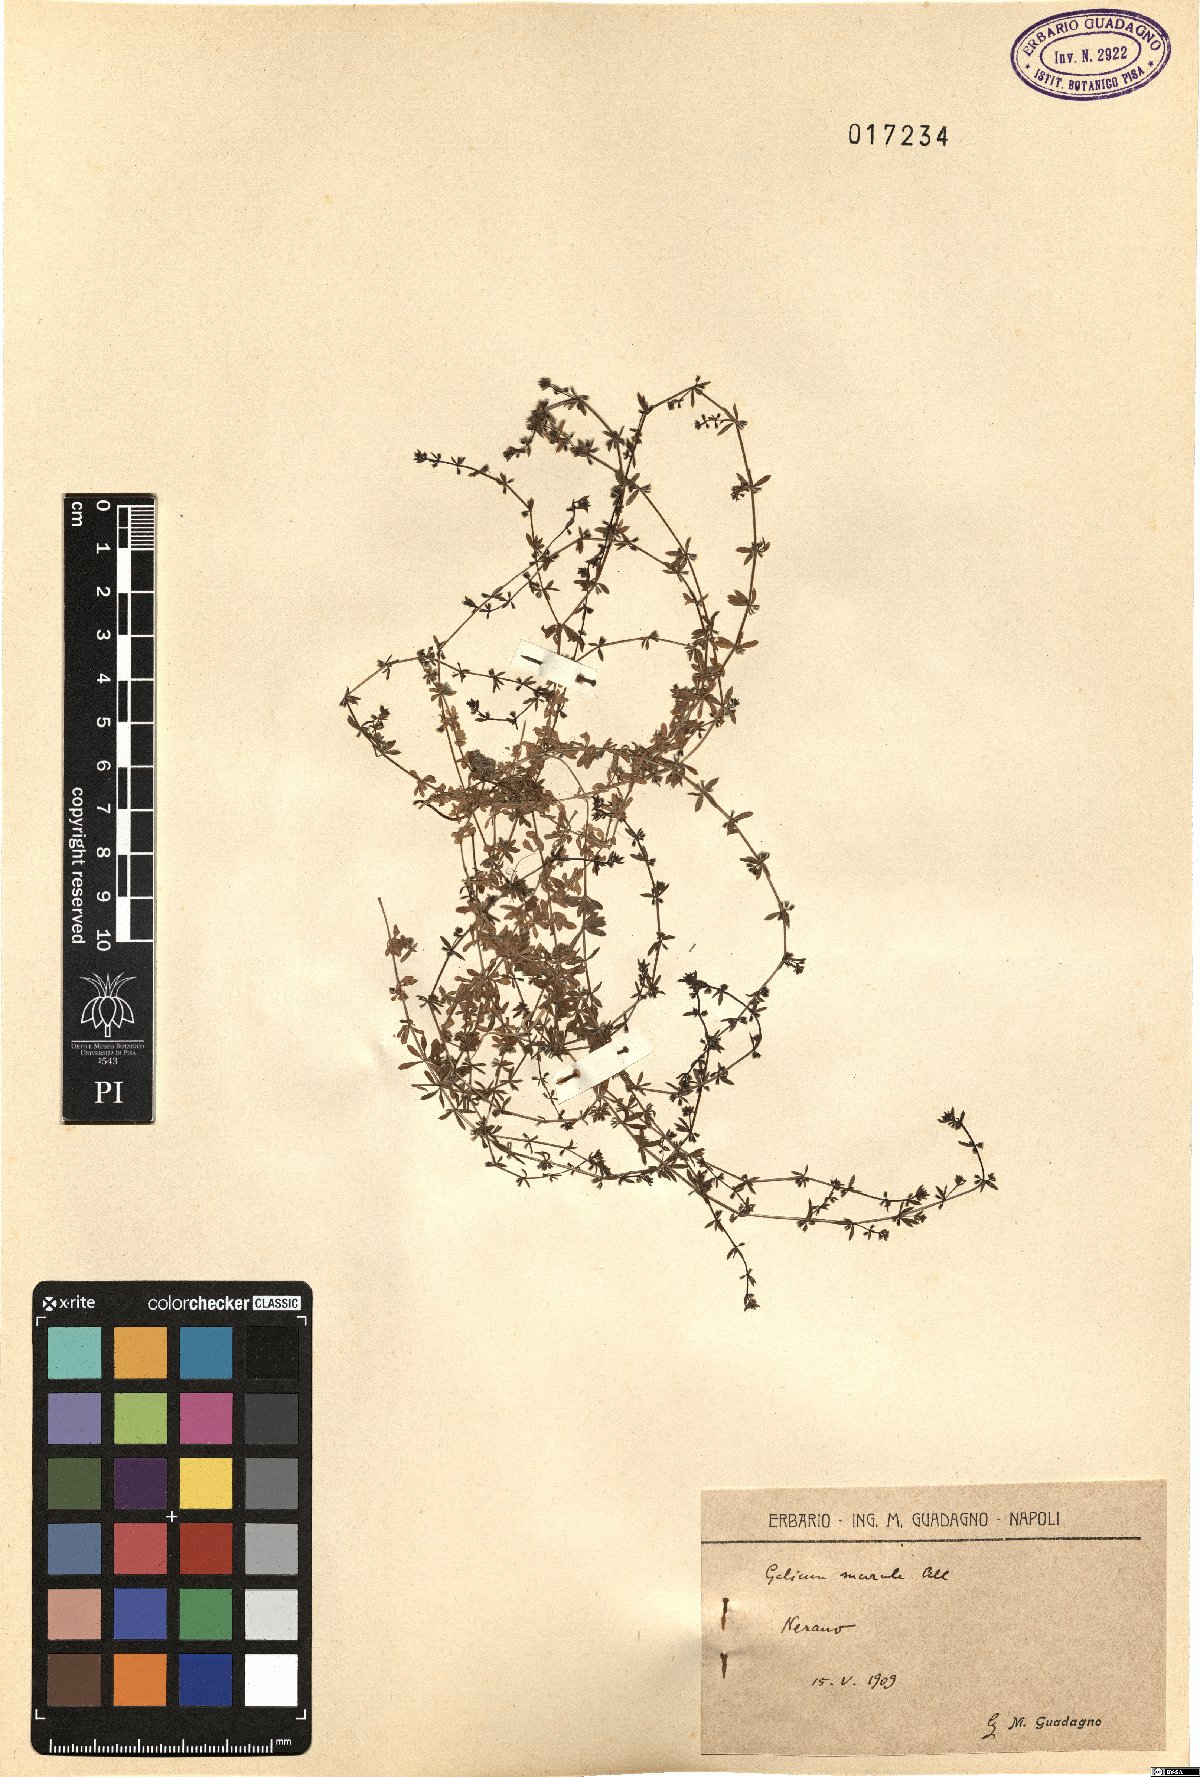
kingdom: Plantae
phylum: Tracheophyta
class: Magnoliopsida
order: Gentianales
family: Rubiaceae
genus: Galium
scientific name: Galium murale
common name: Yellow wall bedstraw
